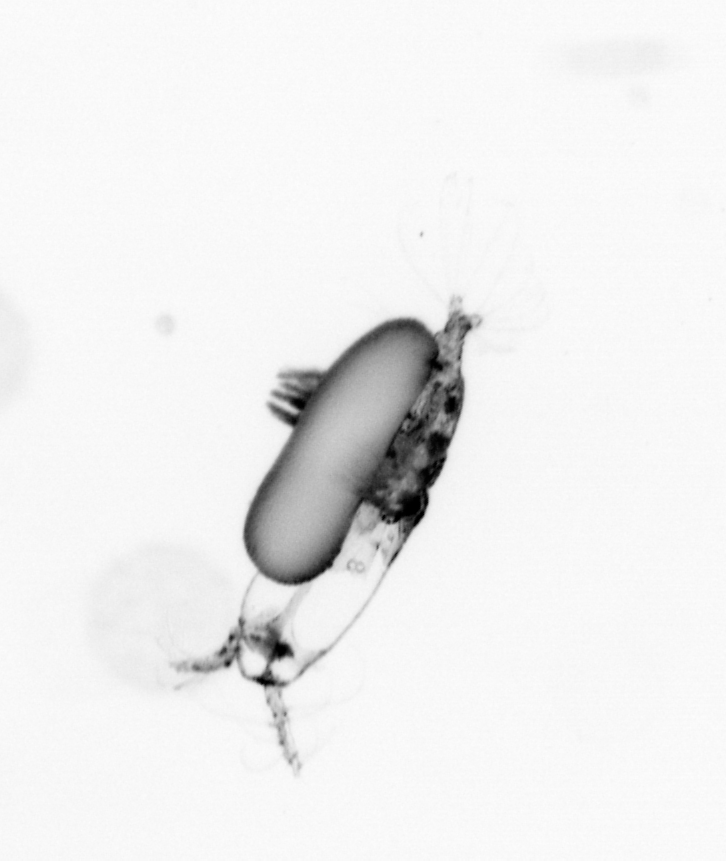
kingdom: Animalia
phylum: Arthropoda
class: Copepoda
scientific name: Copepoda
